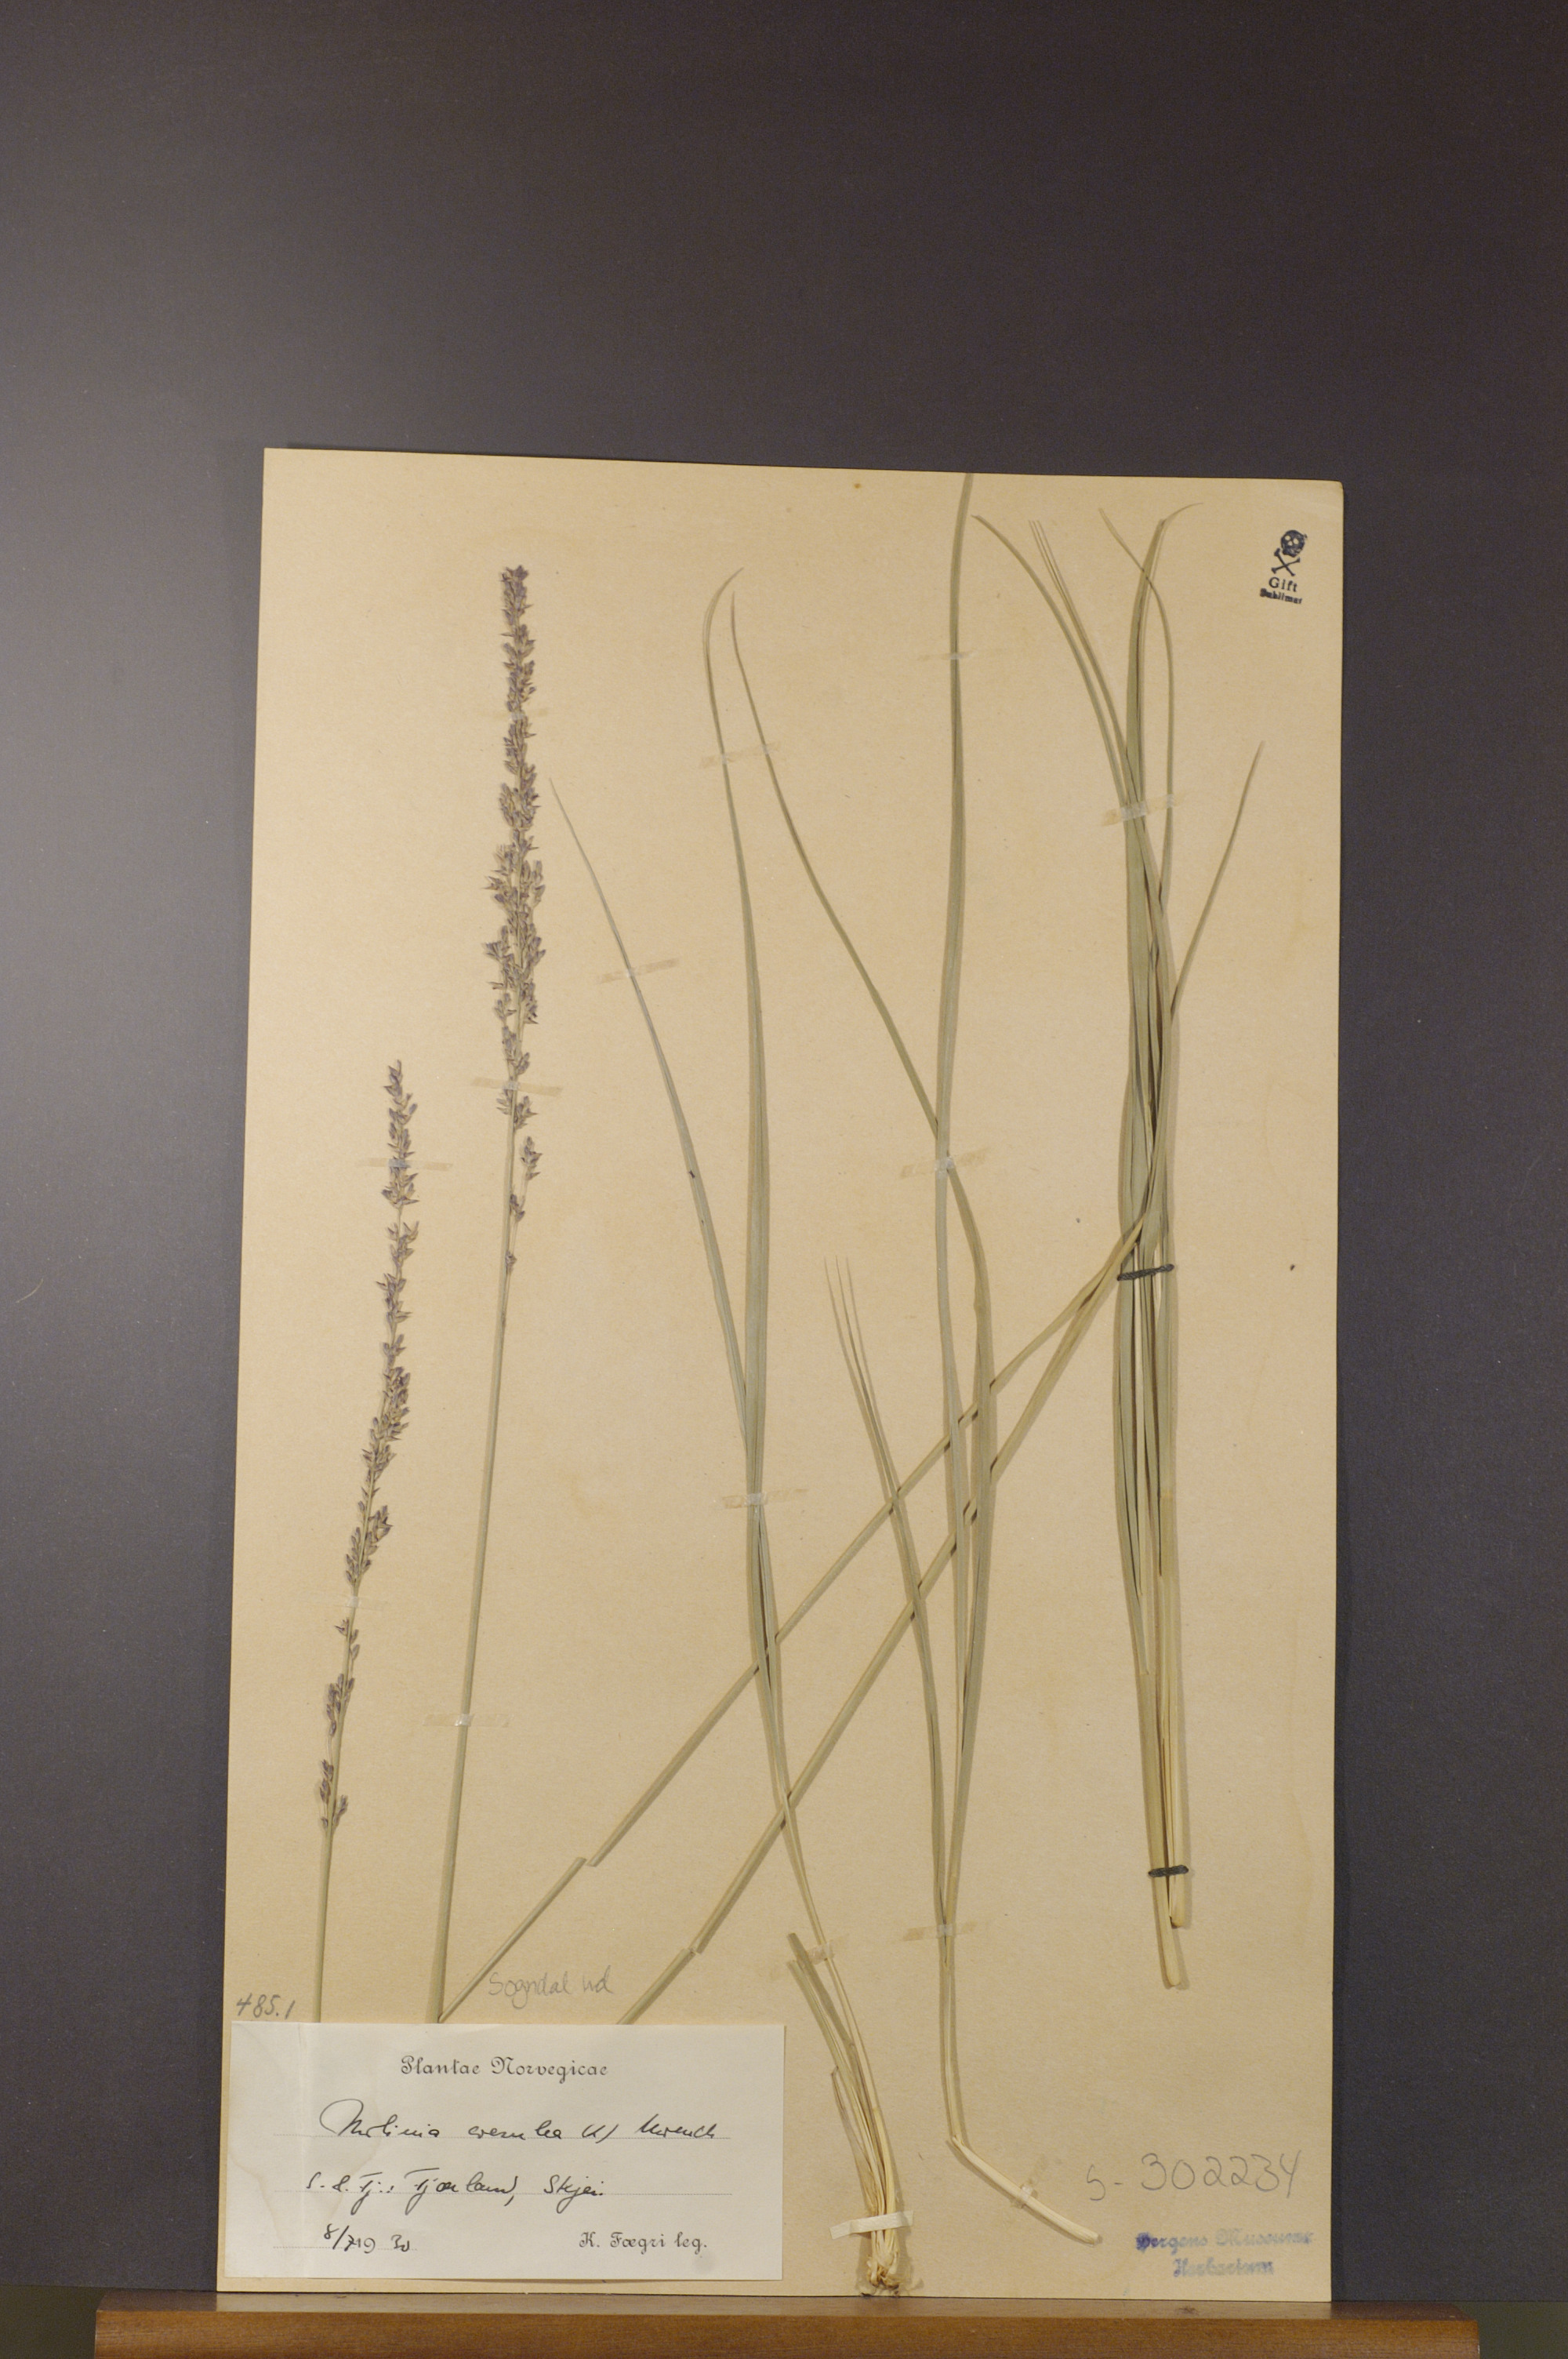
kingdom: Plantae
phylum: Tracheophyta
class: Liliopsida
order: Poales
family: Poaceae
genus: Molinia
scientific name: Molinia caerulea
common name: Purple moor-grass
